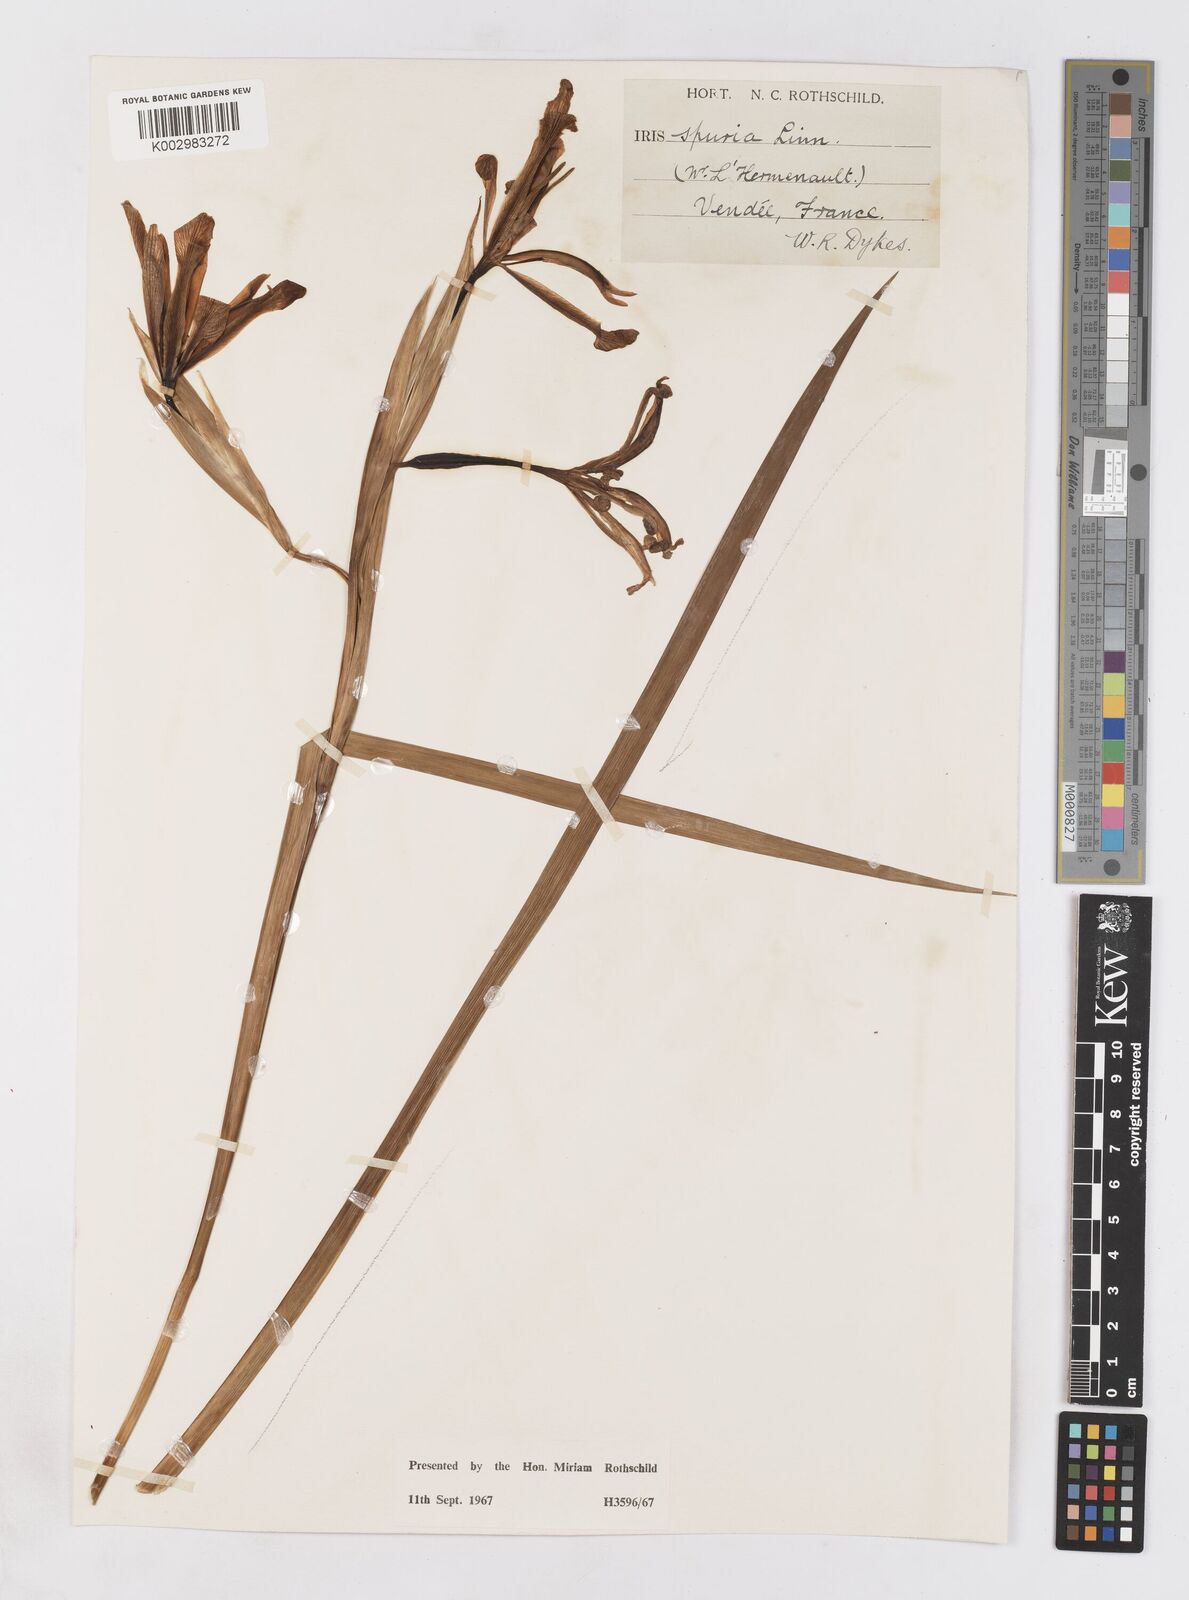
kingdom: Plantae
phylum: Tracheophyta
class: Liliopsida
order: Asparagales
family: Iridaceae
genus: Iris
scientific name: Iris spuria
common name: Blue iris
